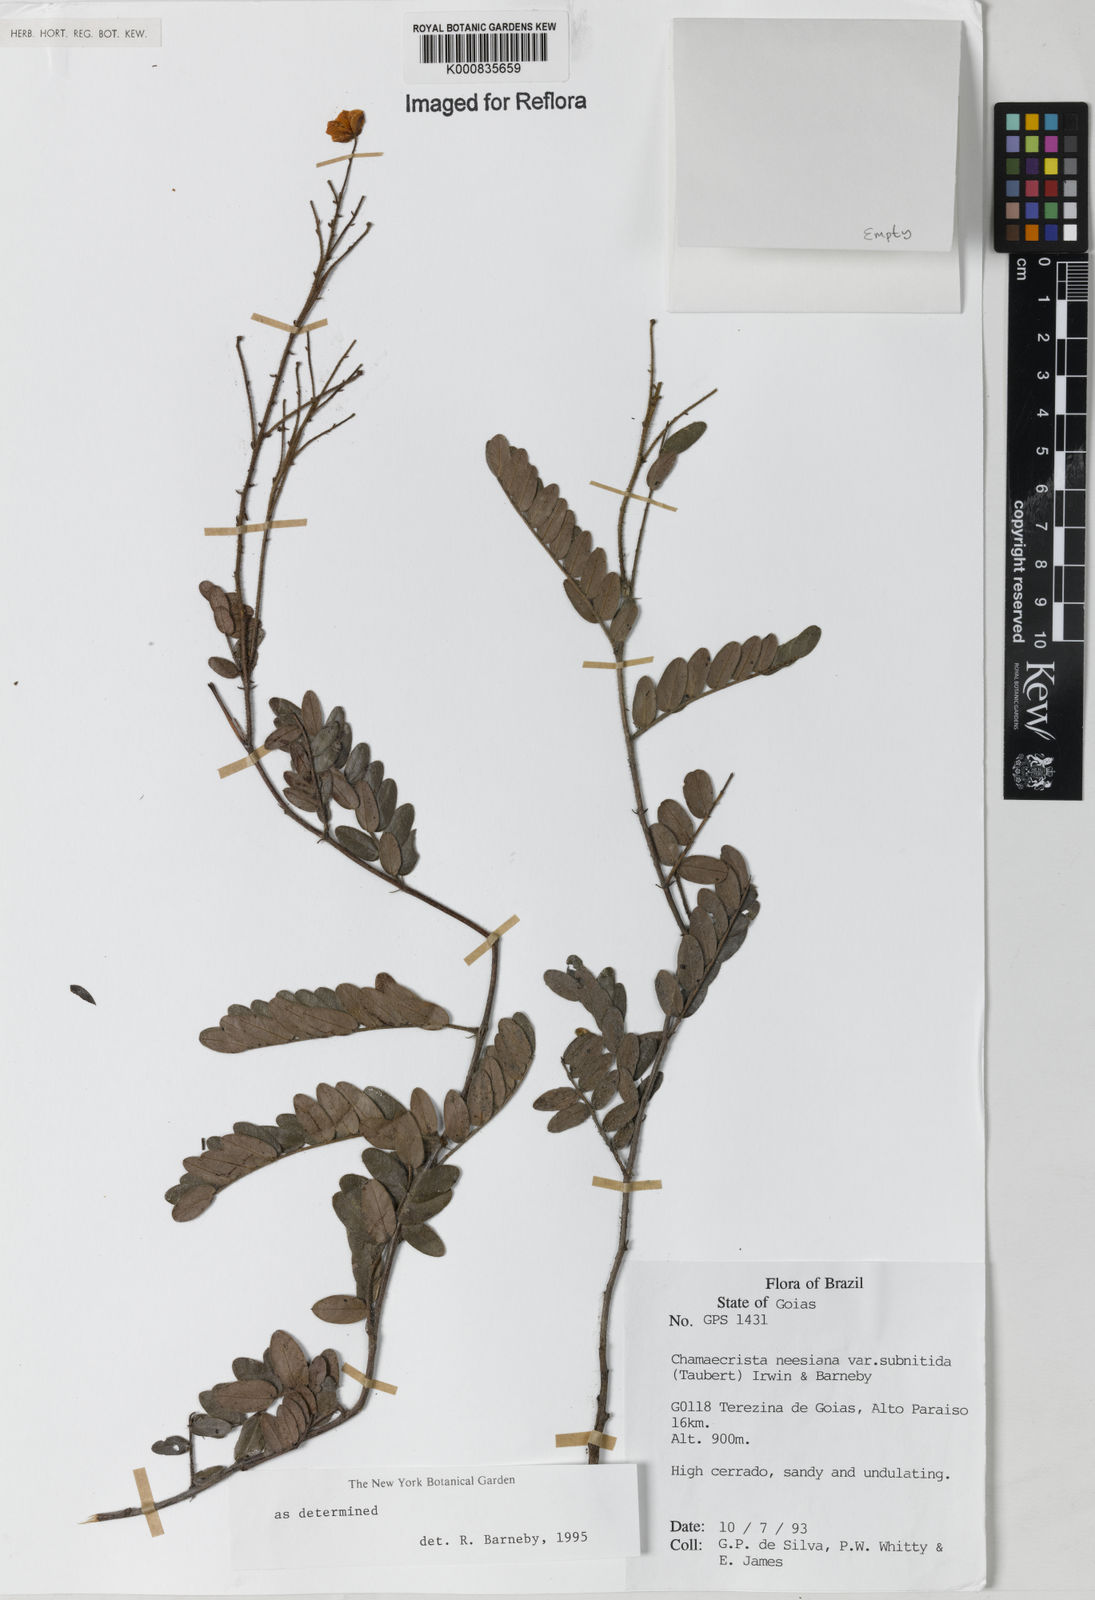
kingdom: Plantae
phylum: Tracheophyta
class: Magnoliopsida
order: Fabales
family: Fabaceae
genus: Chamaecrista
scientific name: Chamaecrista neesiana
